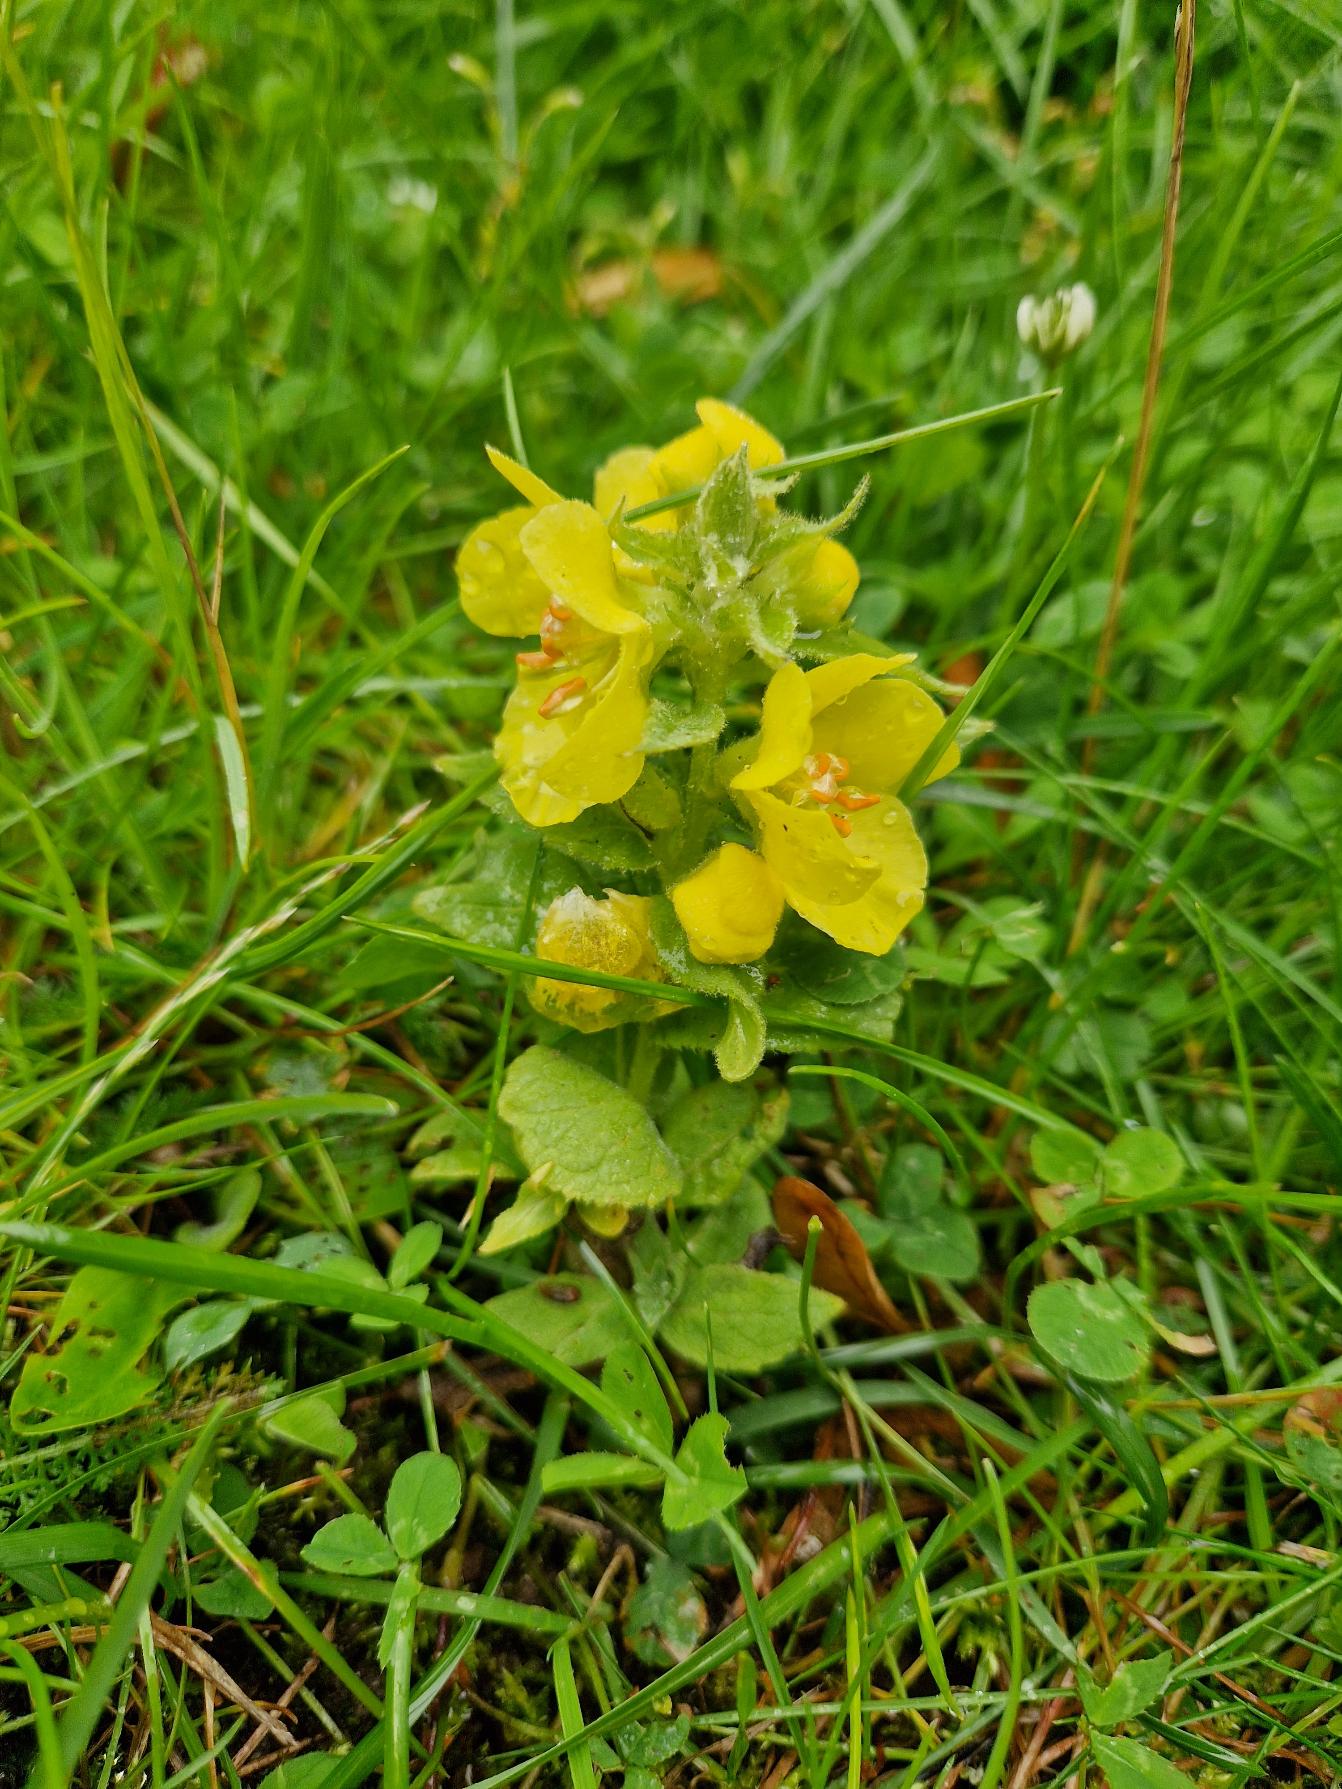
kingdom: Plantae
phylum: Tracheophyta
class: Magnoliopsida
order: Lamiales
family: Scrophulariaceae
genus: Verbascum
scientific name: Verbascum phlomoides
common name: Hjertebladet kongelys
